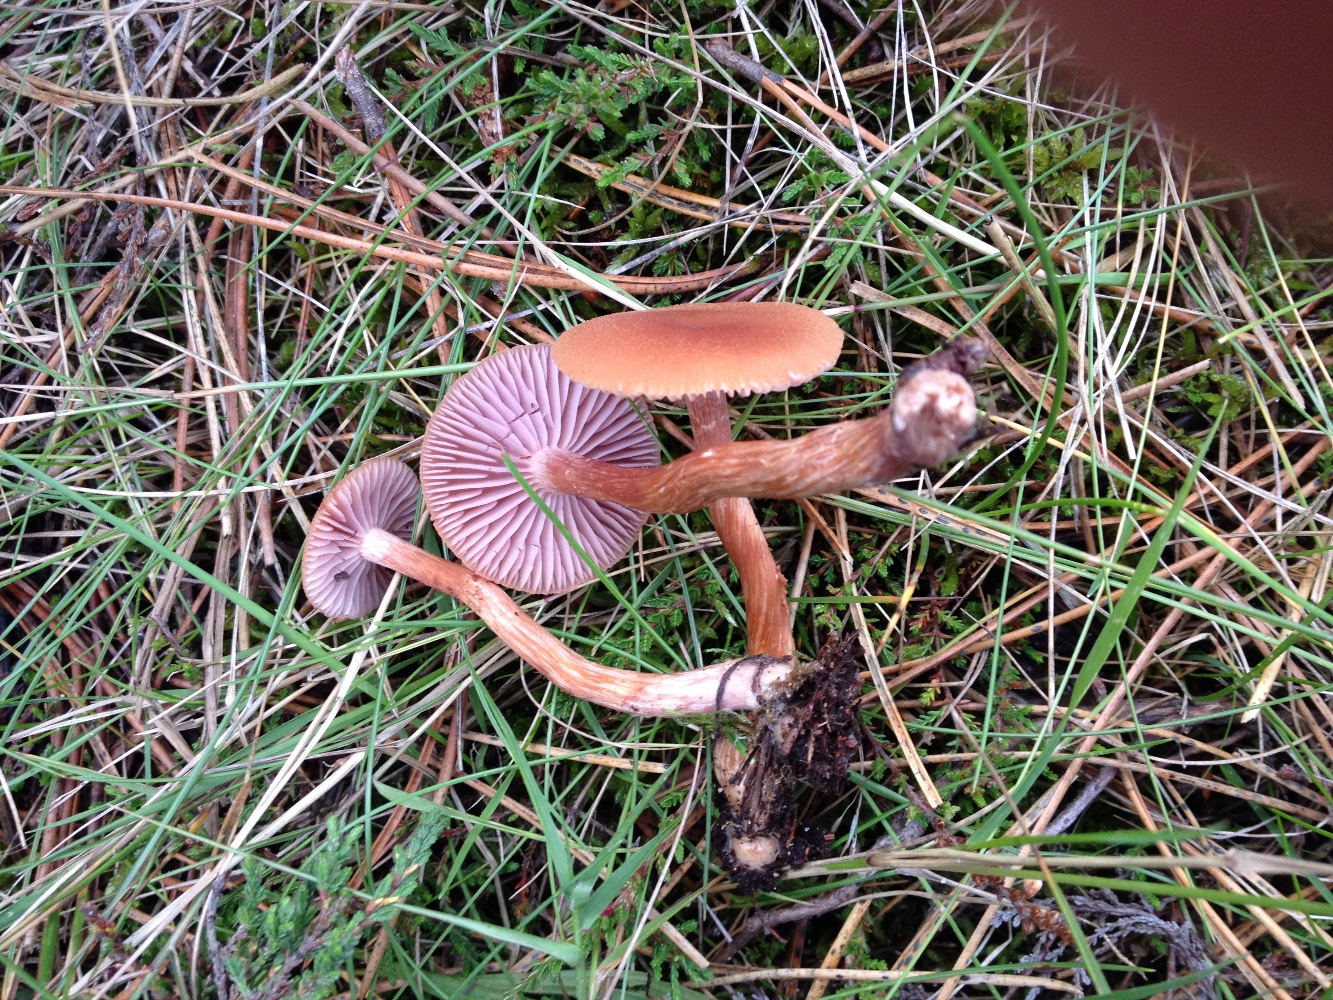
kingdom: Fungi
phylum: Basidiomycota
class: Agaricomycetes
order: Agaricales
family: Hydnangiaceae
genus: Laccaria
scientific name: Laccaria bicolor
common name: tvefarvet ametysthat
